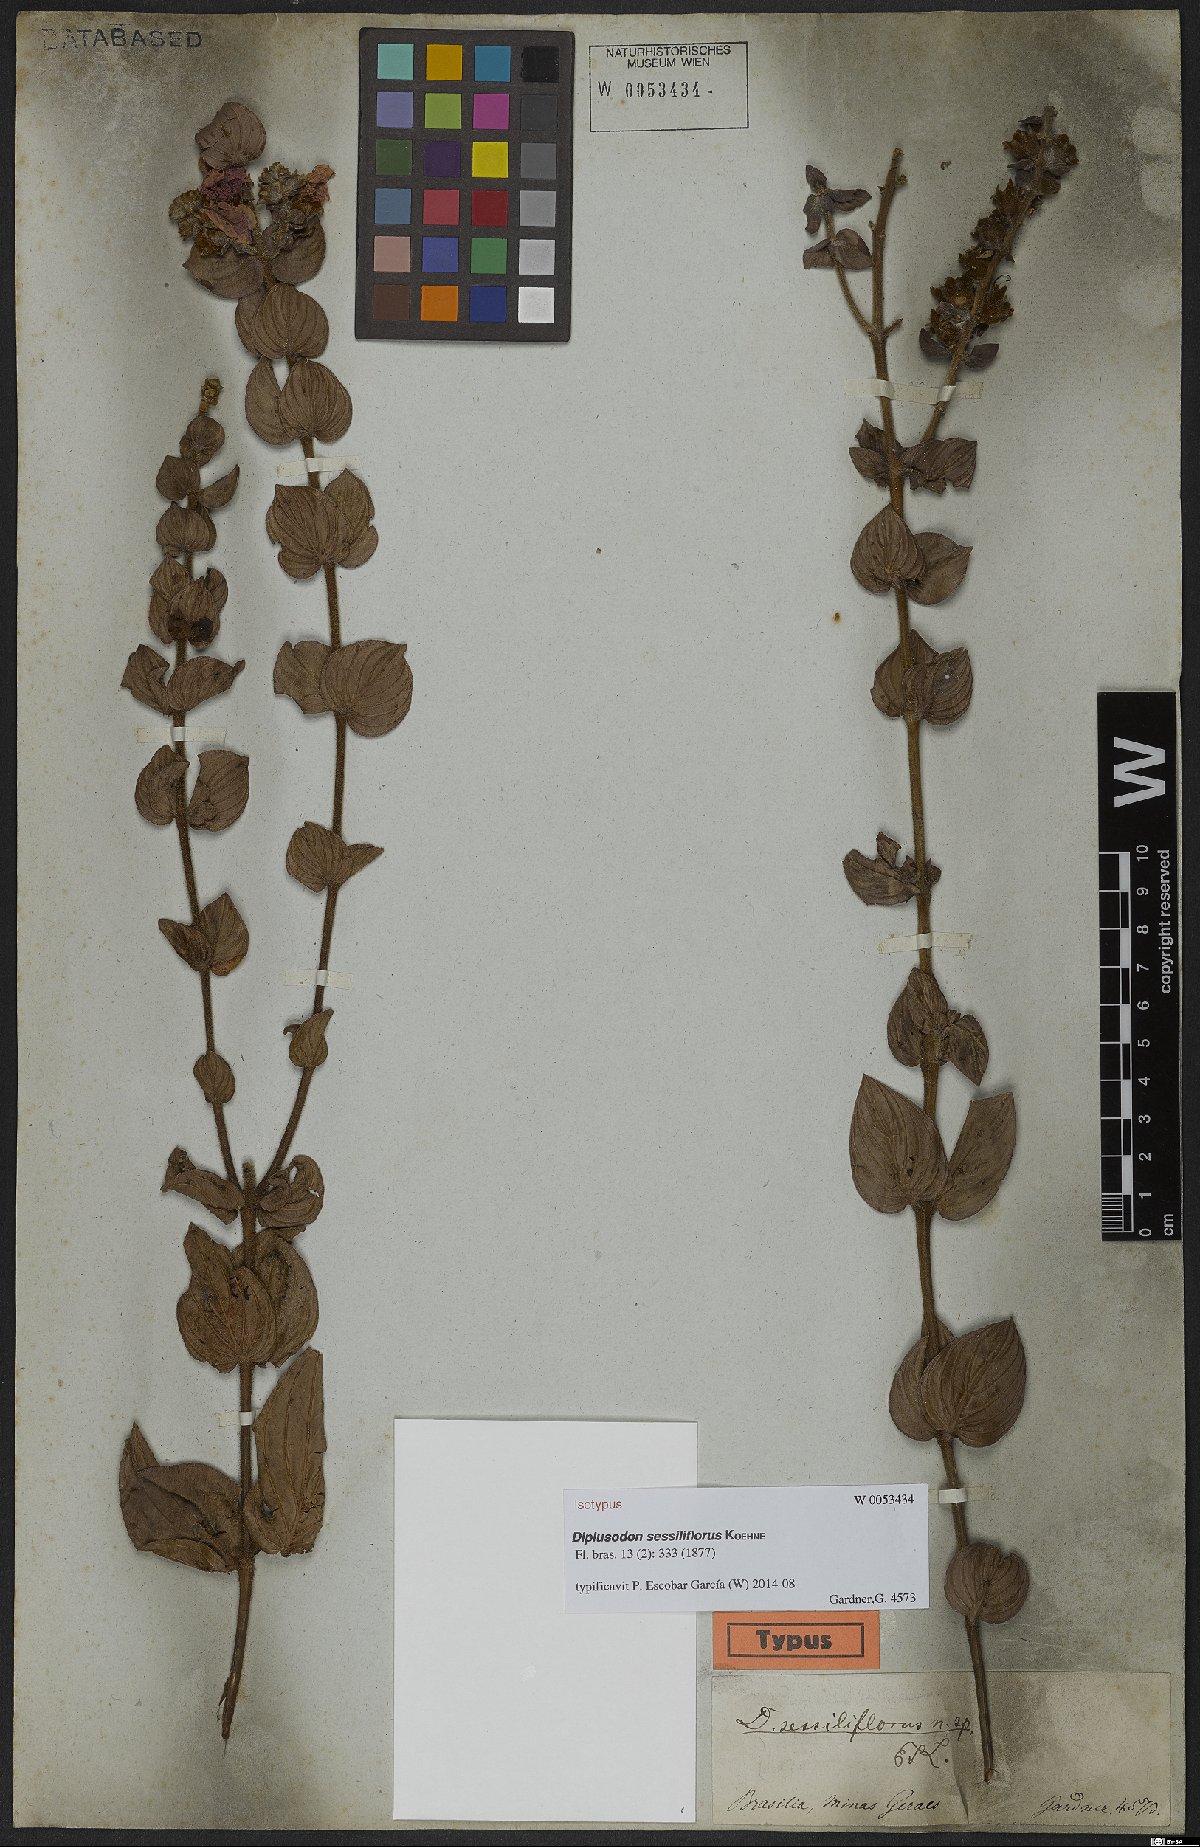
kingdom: Plantae
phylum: Tracheophyta
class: Magnoliopsida
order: Myrtales
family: Lythraceae
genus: Diplusodon
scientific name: Diplusodon sessiliflorus
